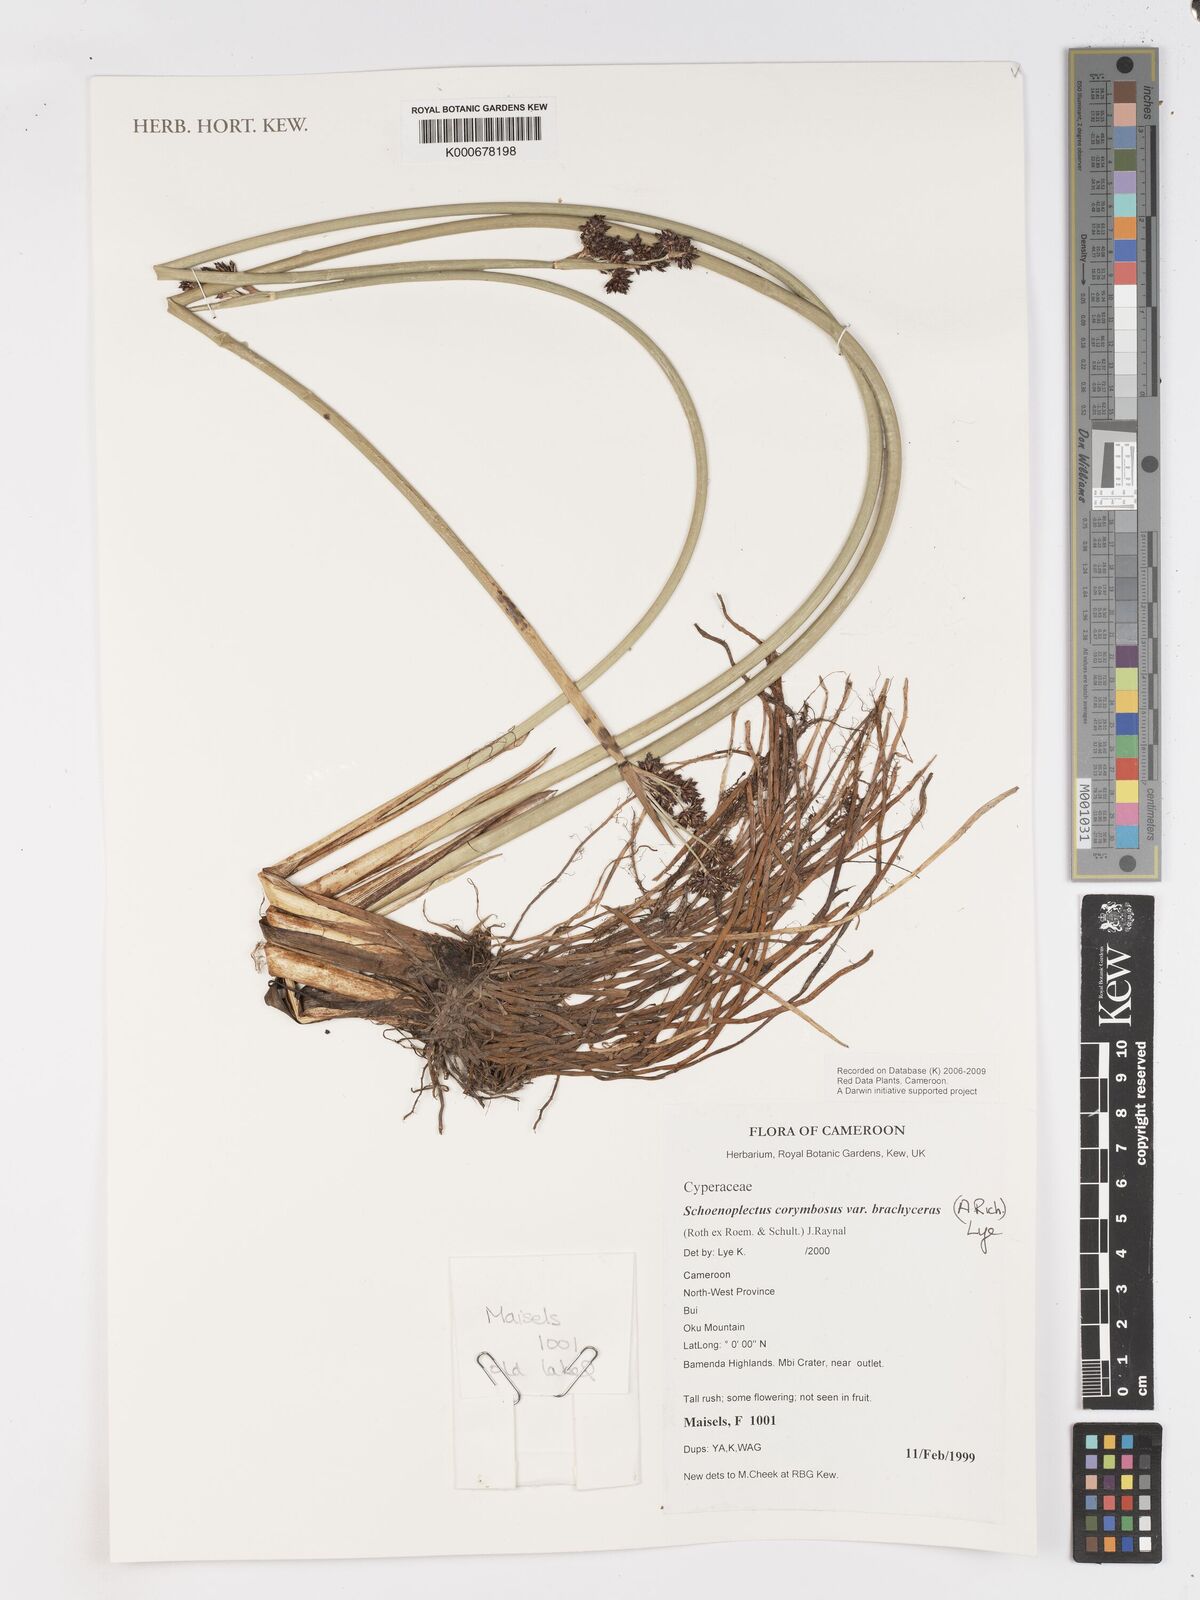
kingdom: Plantae
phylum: Tracheophyta
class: Liliopsida
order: Poales
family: Cyperaceae
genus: Schoenoplectiella
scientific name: Schoenoplectiella brachyceras
